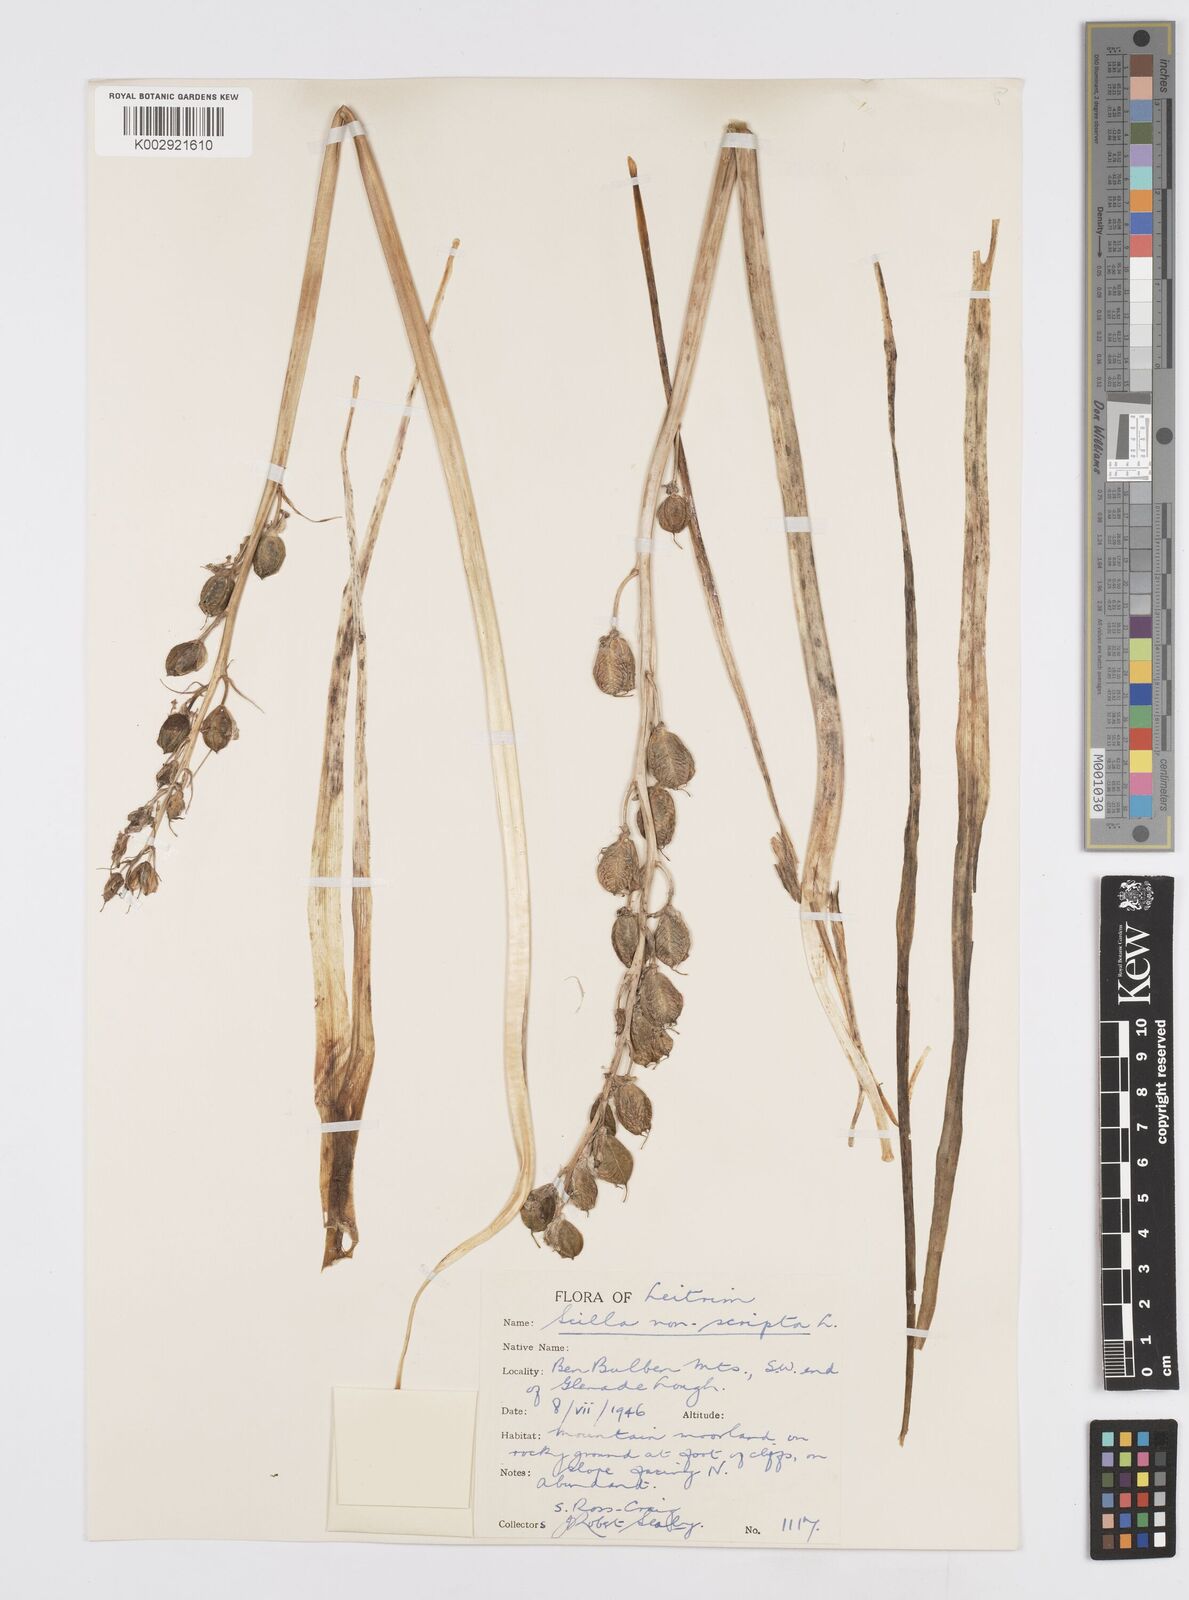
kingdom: Plantae
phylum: Tracheophyta
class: Liliopsida
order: Asparagales
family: Asparagaceae
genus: Hyacinthoides
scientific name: Hyacinthoides non-scripta
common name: Bluebell
